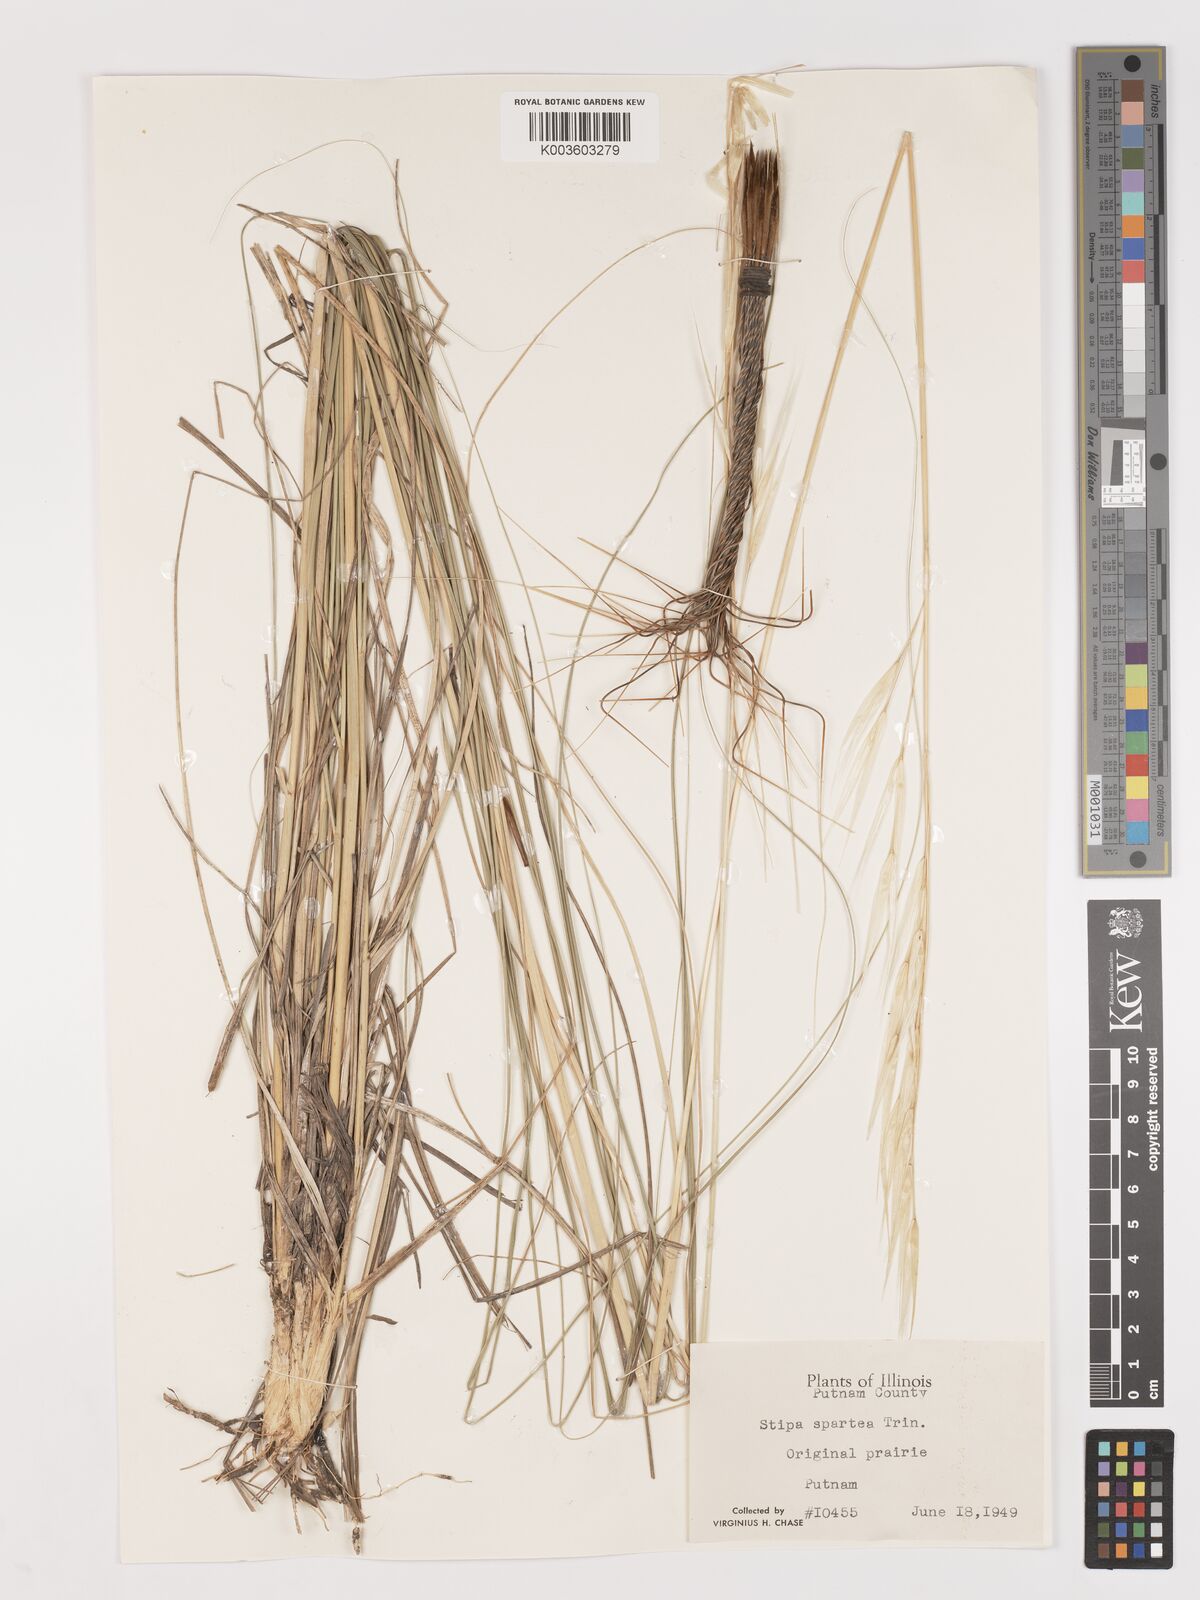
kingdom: Plantae
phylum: Tracheophyta
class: Liliopsida
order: Poales
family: Poaceae
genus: Hesperostipa
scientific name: Hesperostipa spartea
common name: Porcupine grass
